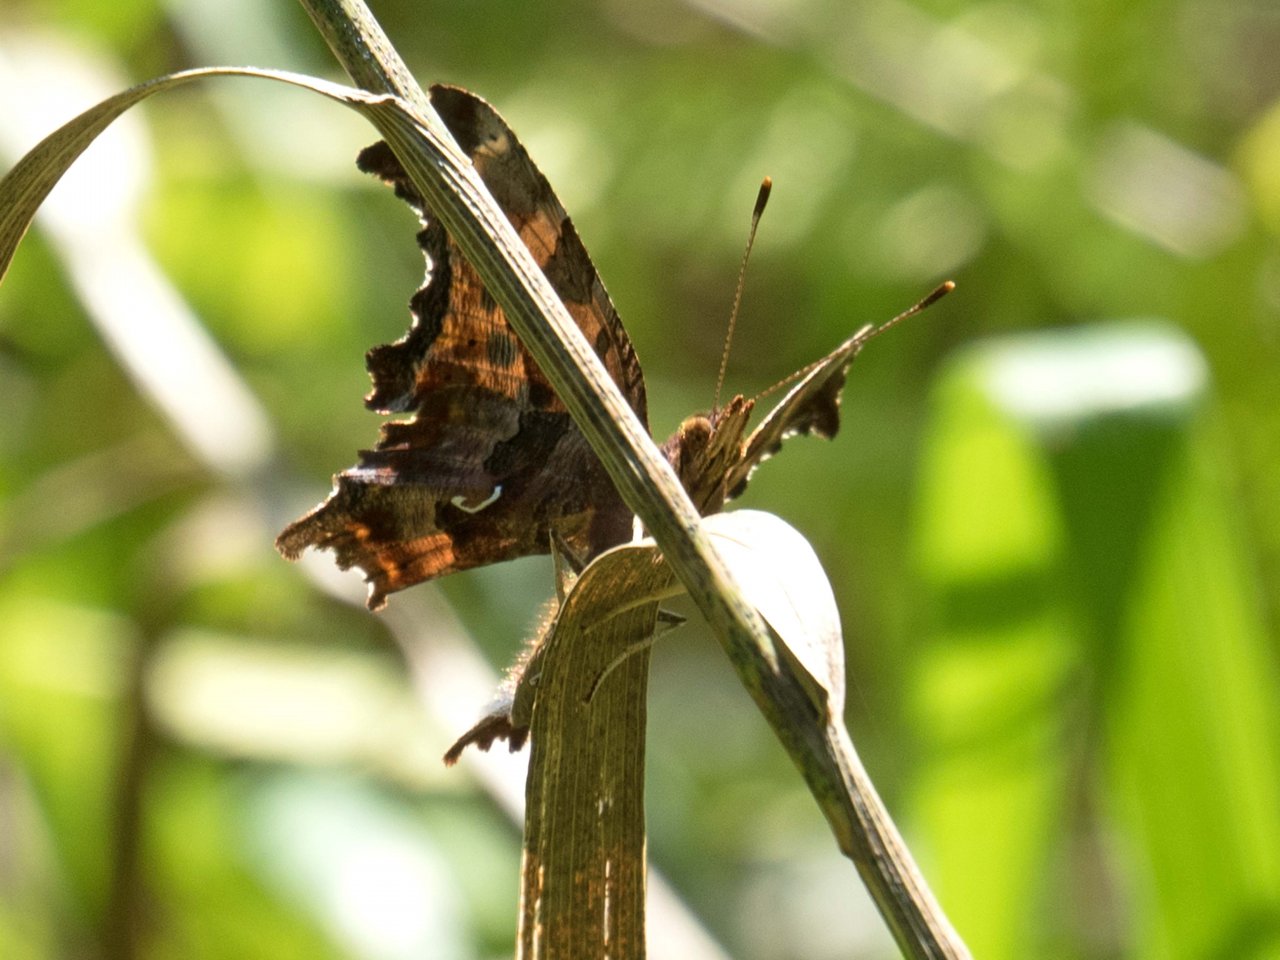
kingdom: Animalia
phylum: Arthropoda
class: Insecta
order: Lepidoptera
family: Nymphalidae
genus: Polygonia
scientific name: Polygonia comma
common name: Eastern Comma
